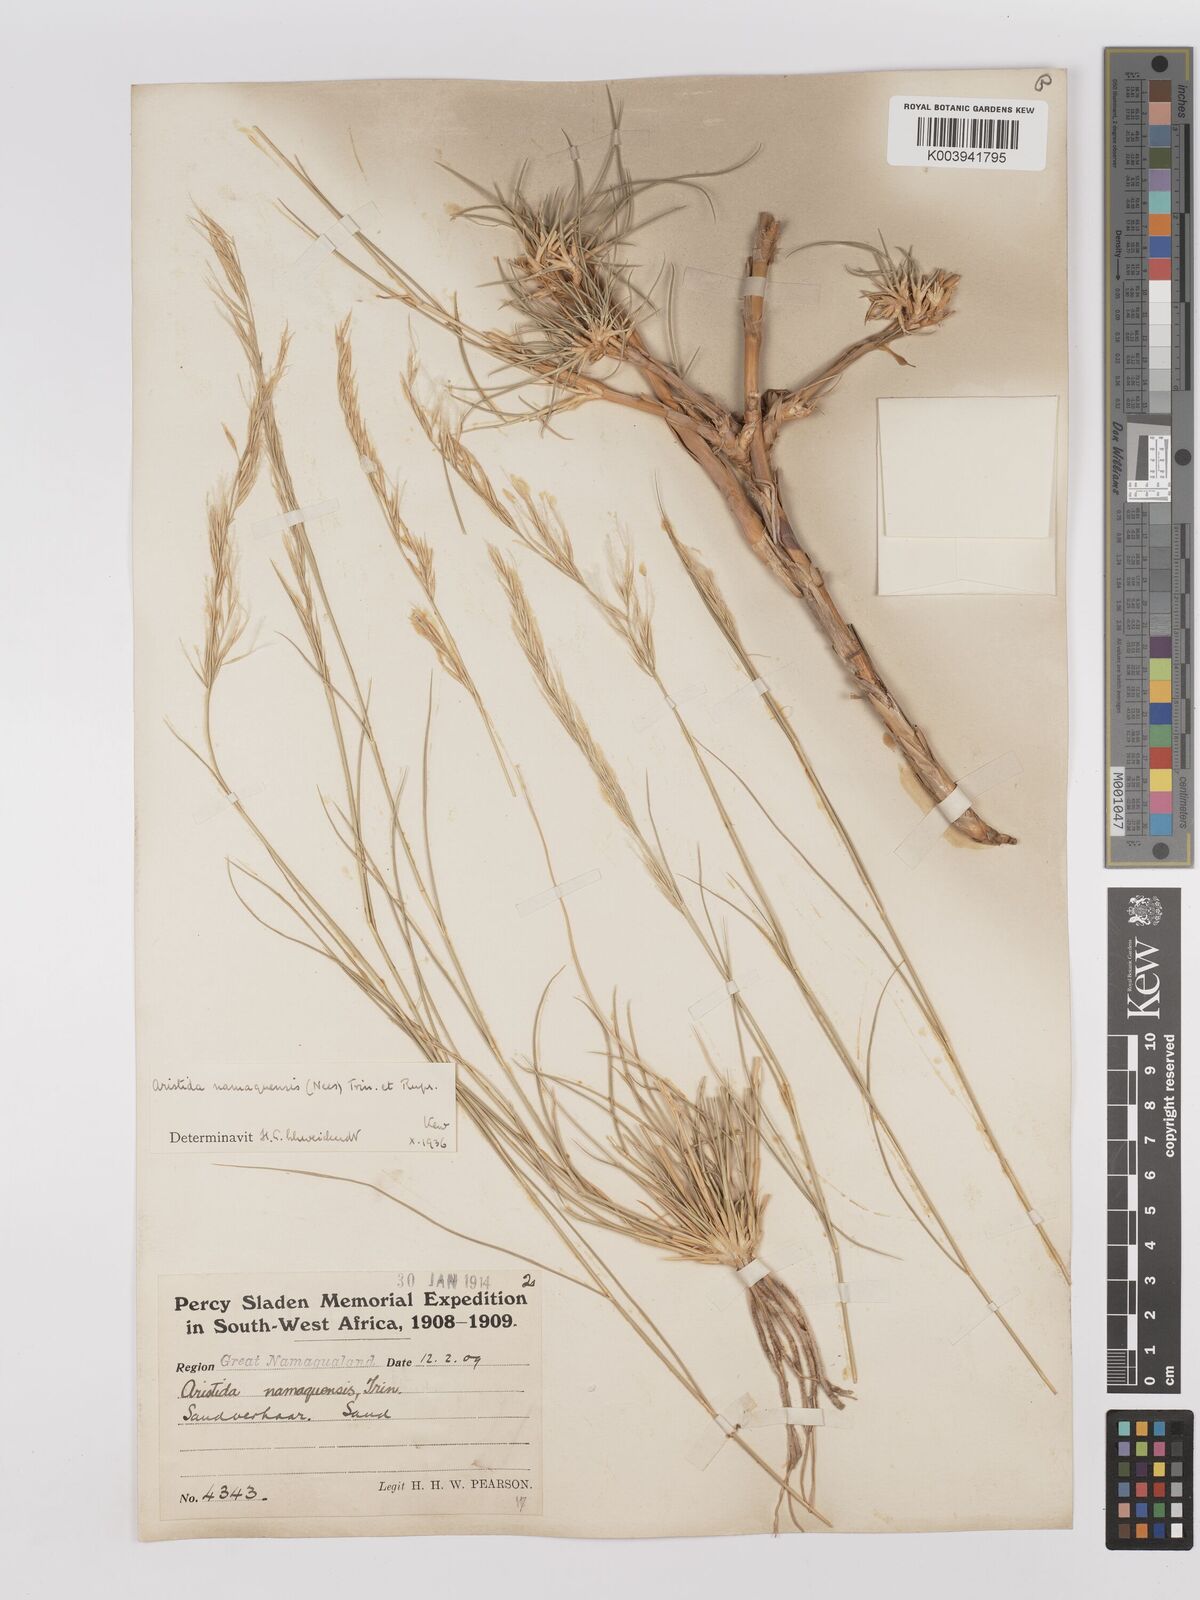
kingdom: Plantae
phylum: Tracheophyta
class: Liliopsida
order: Poales
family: Poaceae
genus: Stipagrostis
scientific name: Stipagrostis namaquensis
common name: River bushman grass
